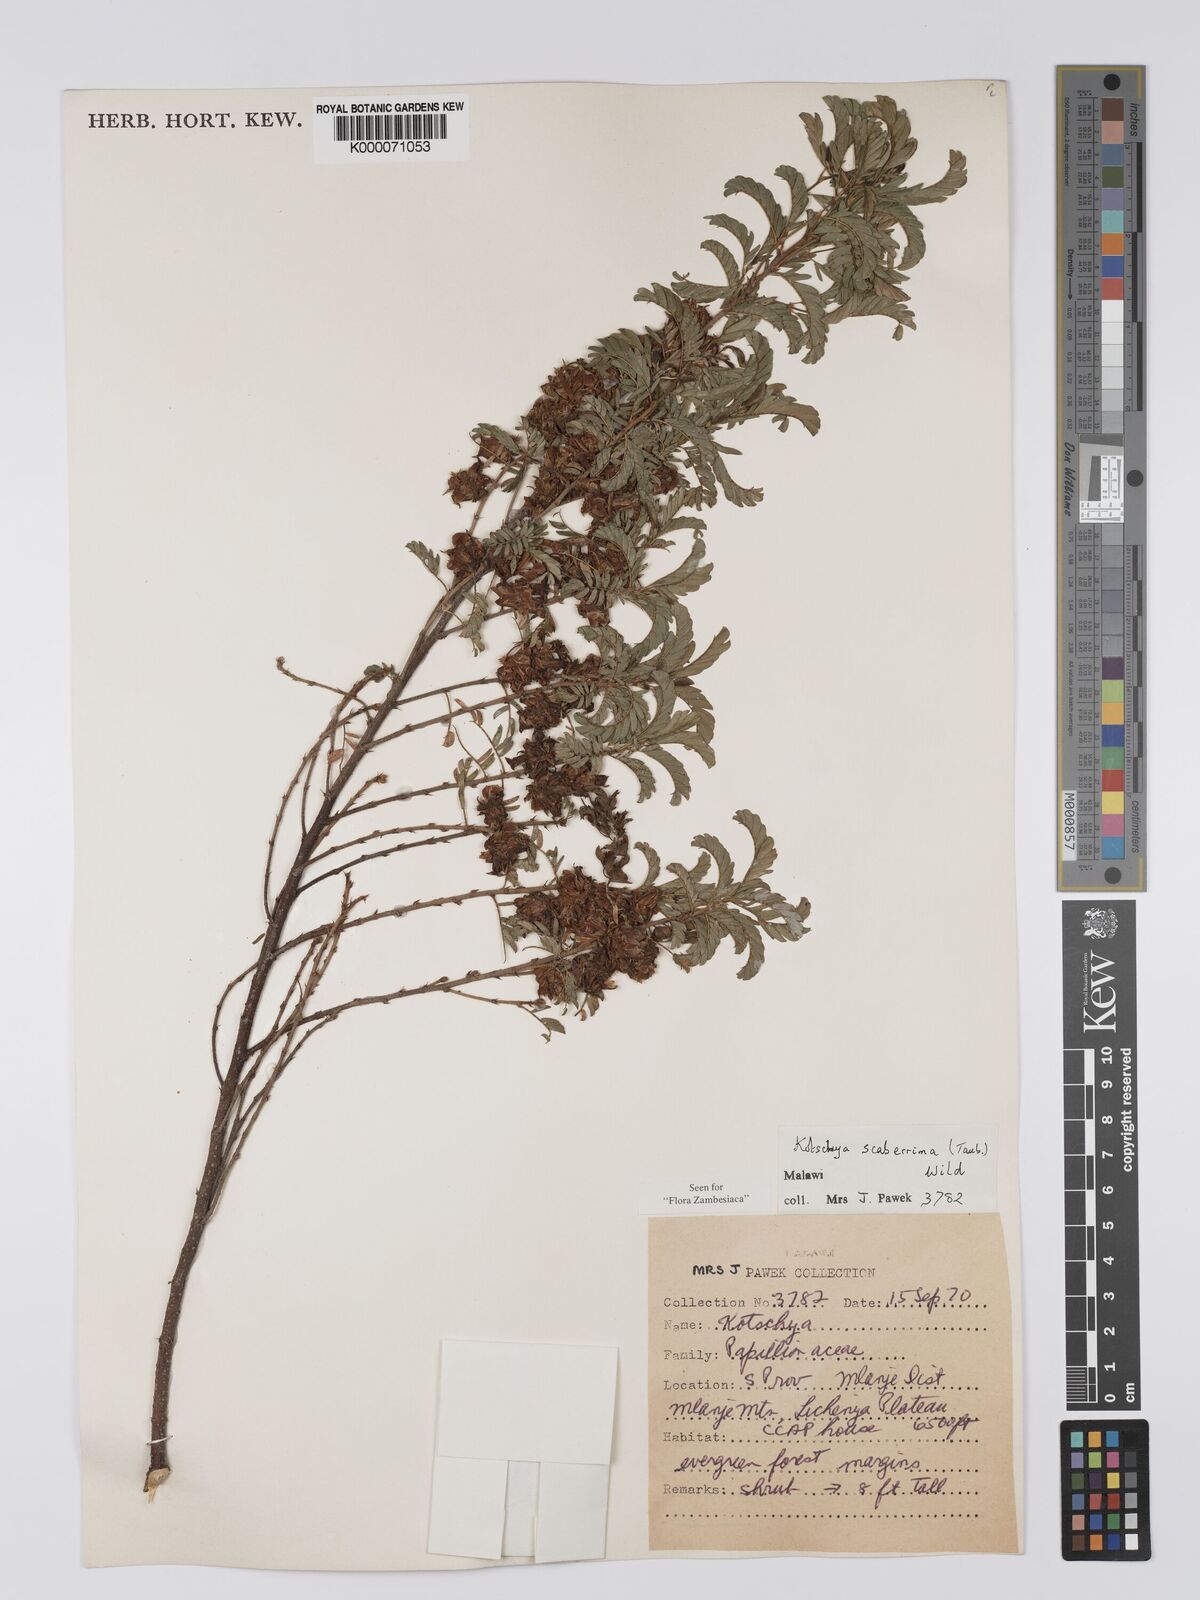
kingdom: Plantae
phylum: Tracheophyta
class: Magnoliopsida
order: Fabales
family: Fabaceae
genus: Kotschya
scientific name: Kotschya scaberrima
